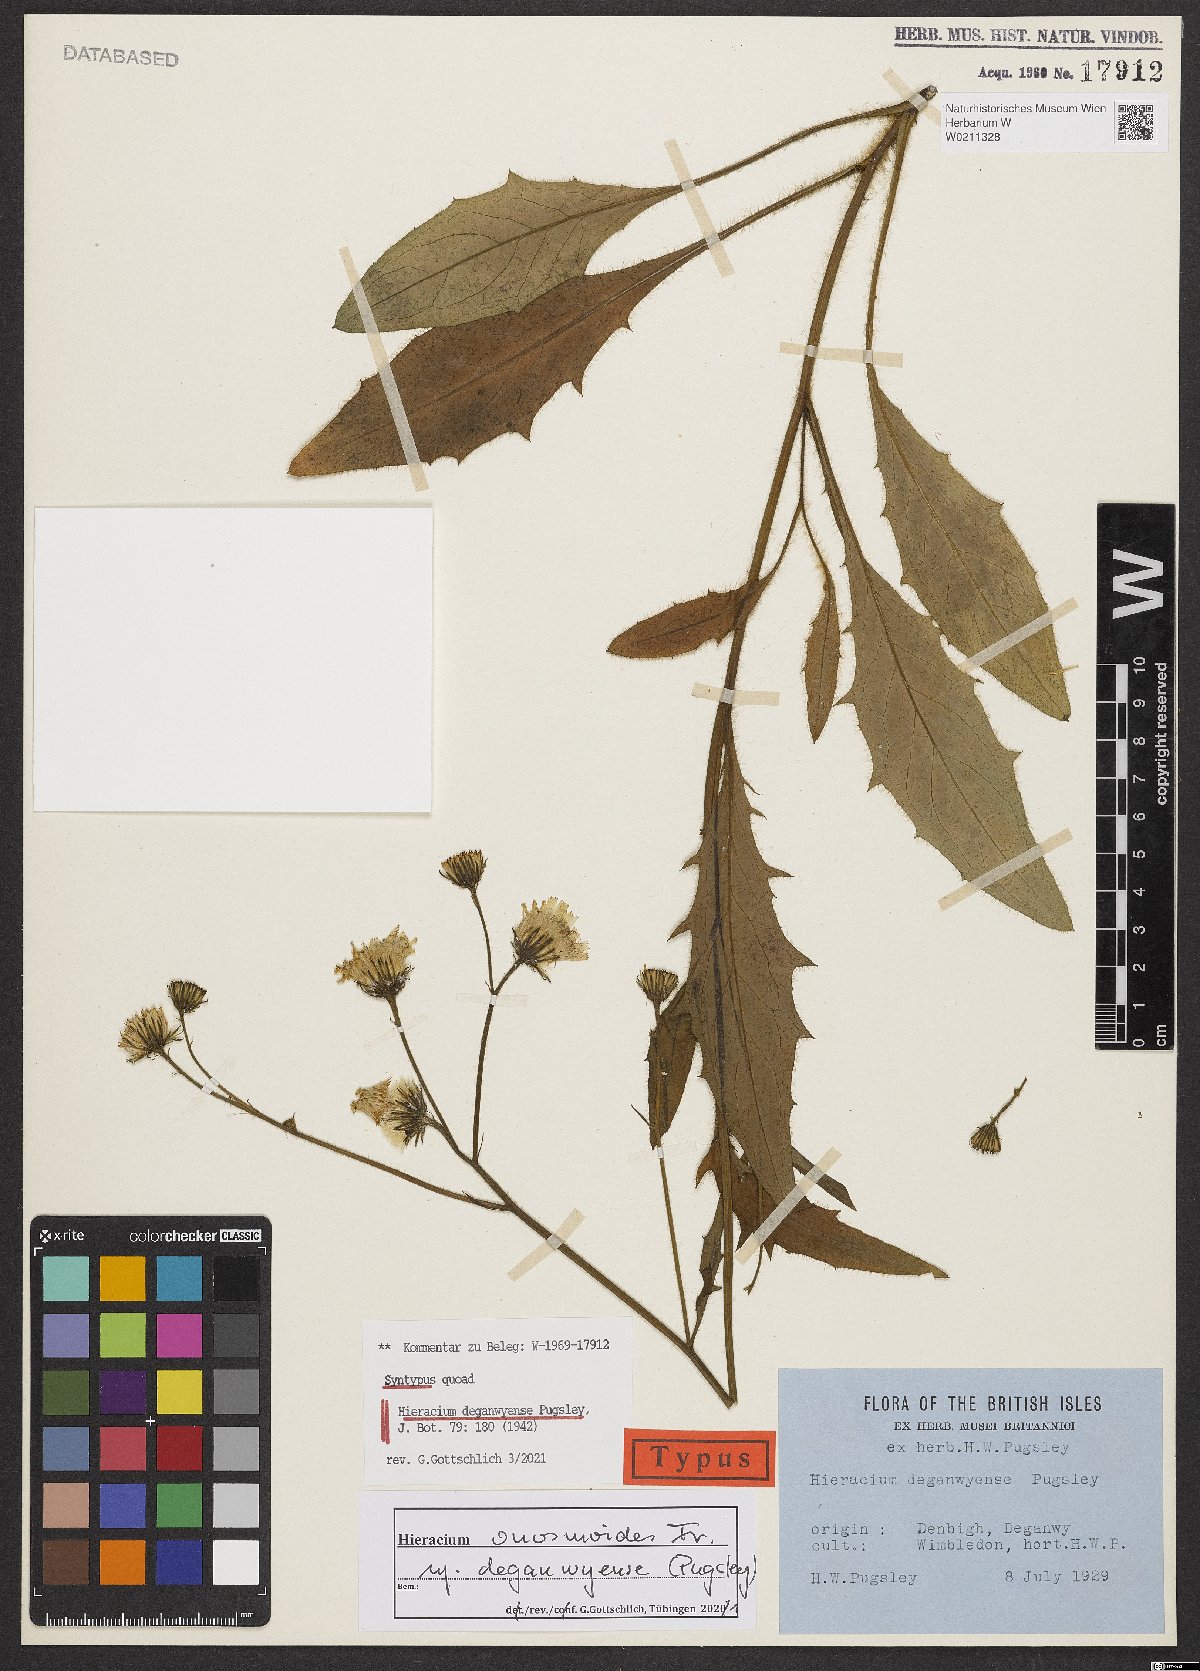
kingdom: Plantae
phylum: Tracheophyta
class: Magnoliopsida
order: Asterales
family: Asteraceae
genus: Hieracium
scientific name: Hieracium deganwyense
